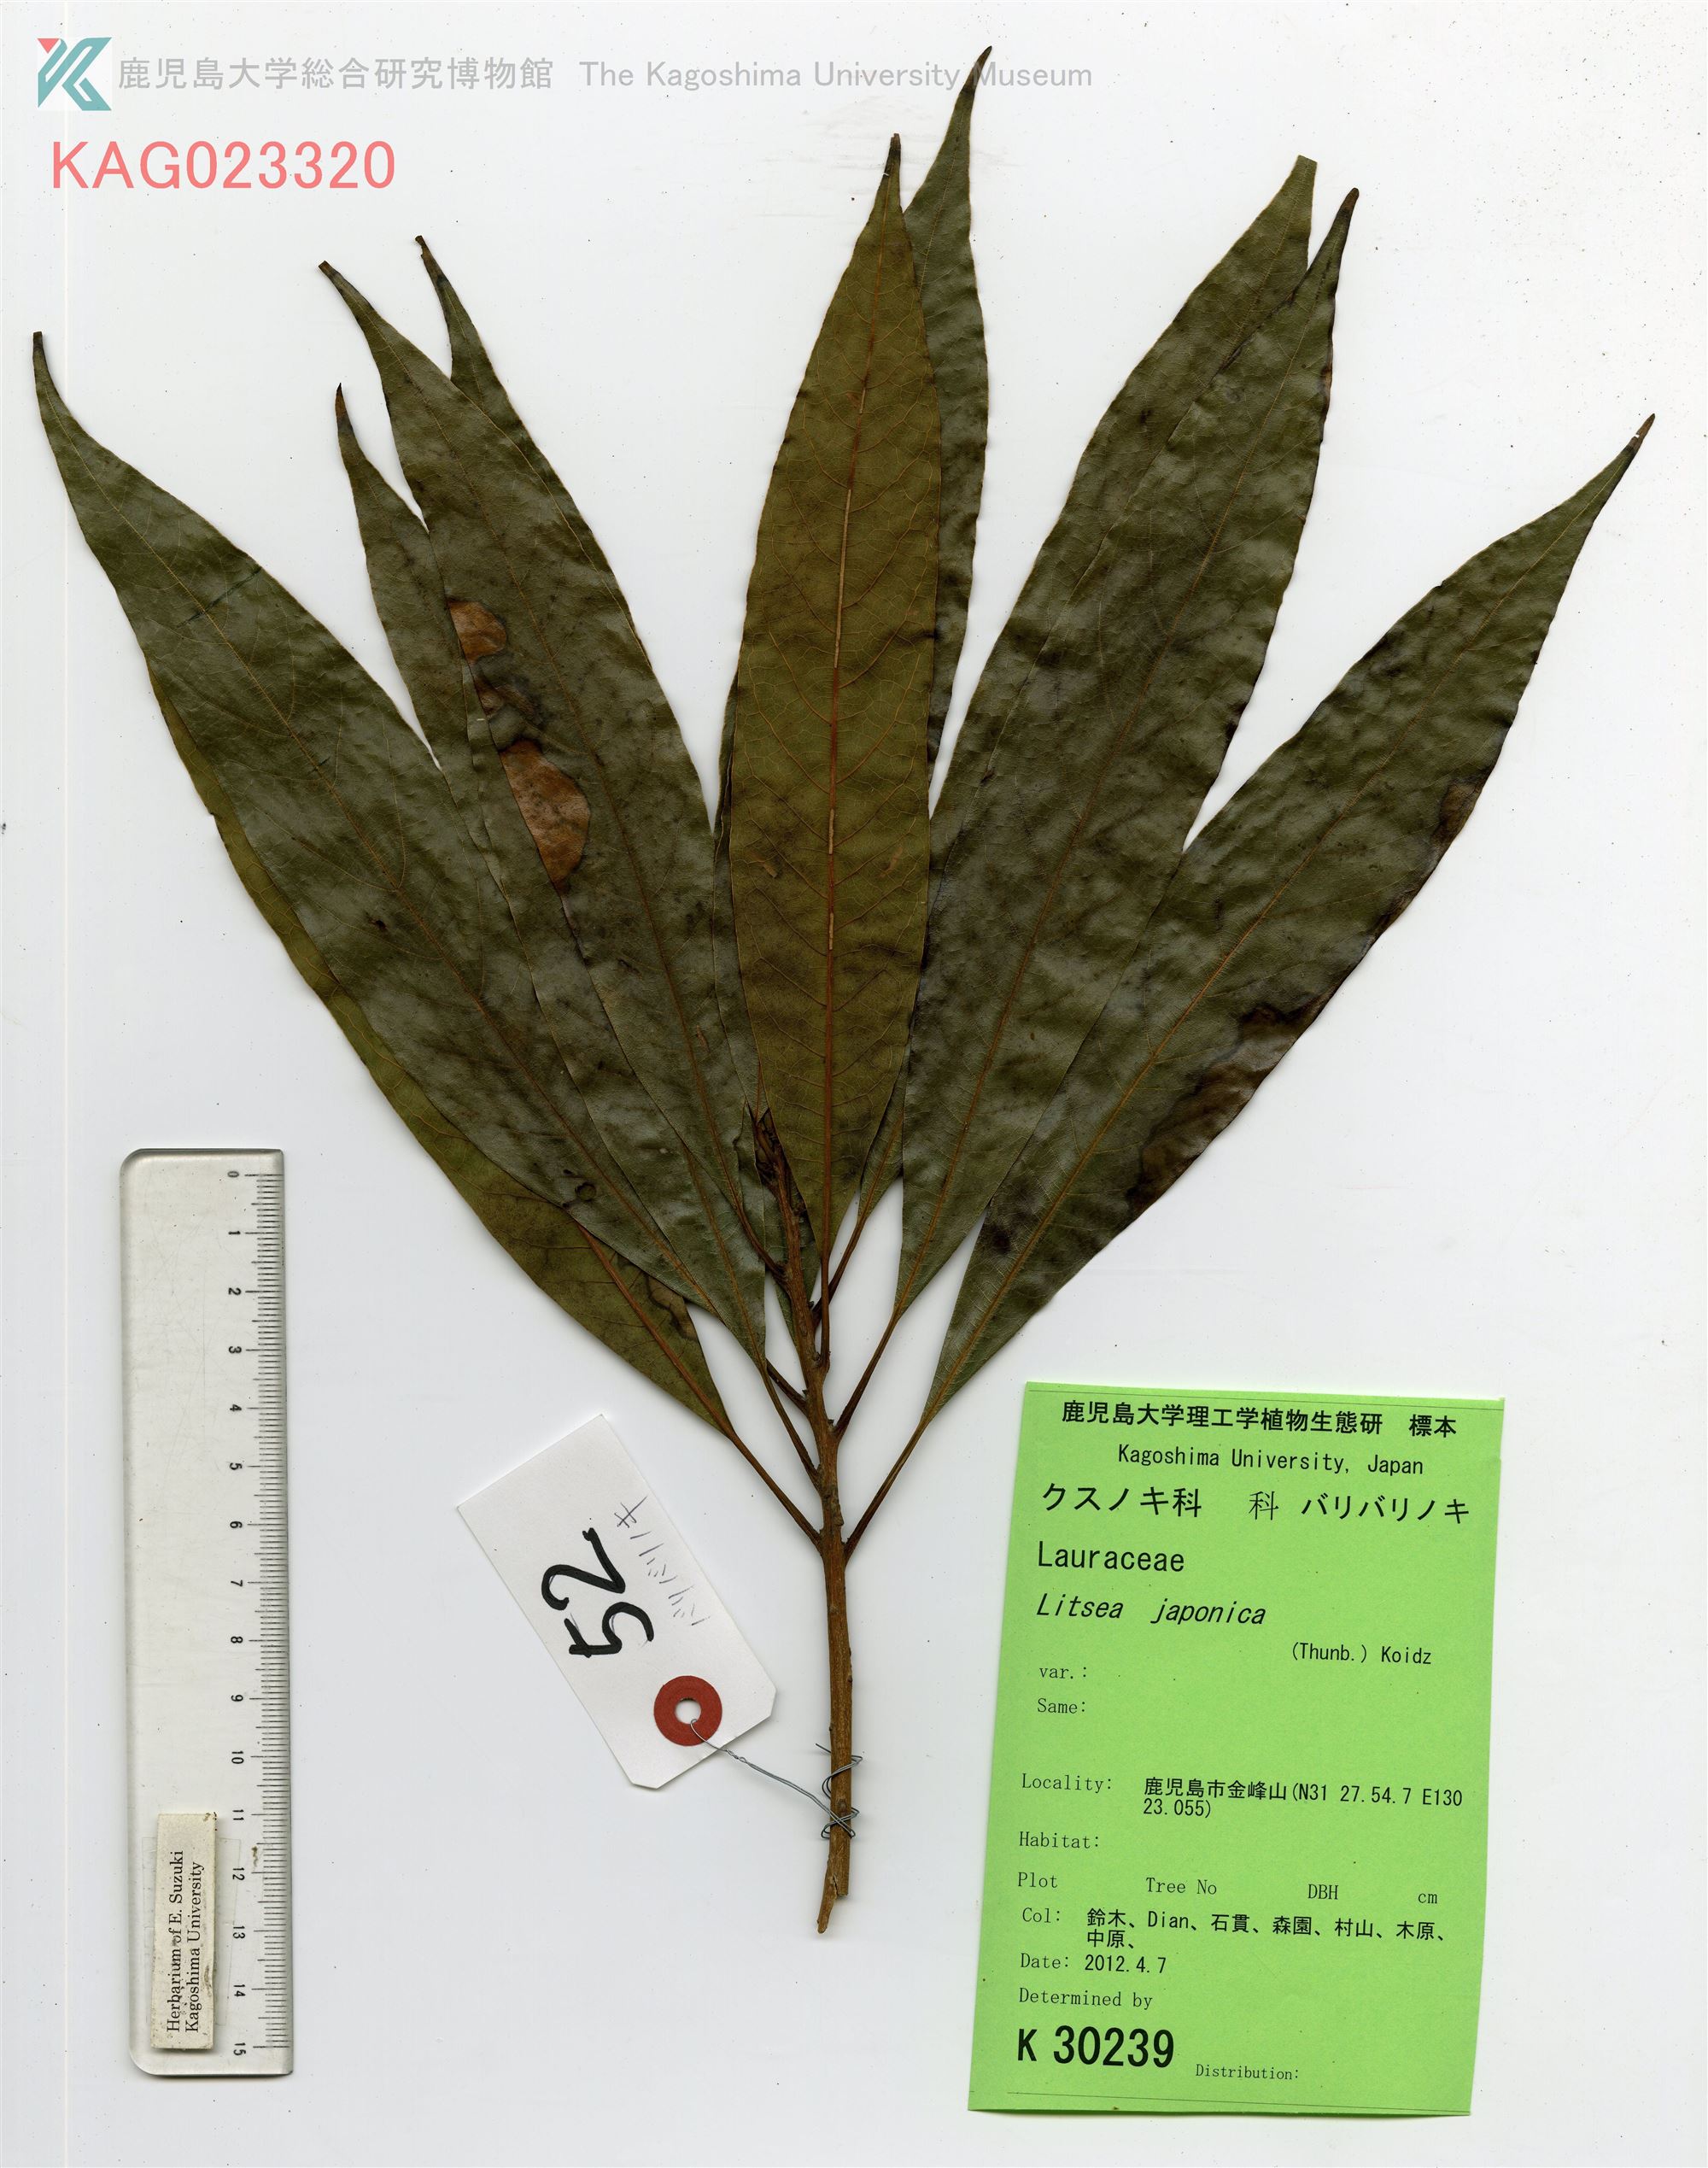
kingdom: Plantae
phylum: Tracheophyta
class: Magnoliopsida
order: Laurales
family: Lauraceae
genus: Actinodaphne
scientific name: Actinodaphne acuminata
